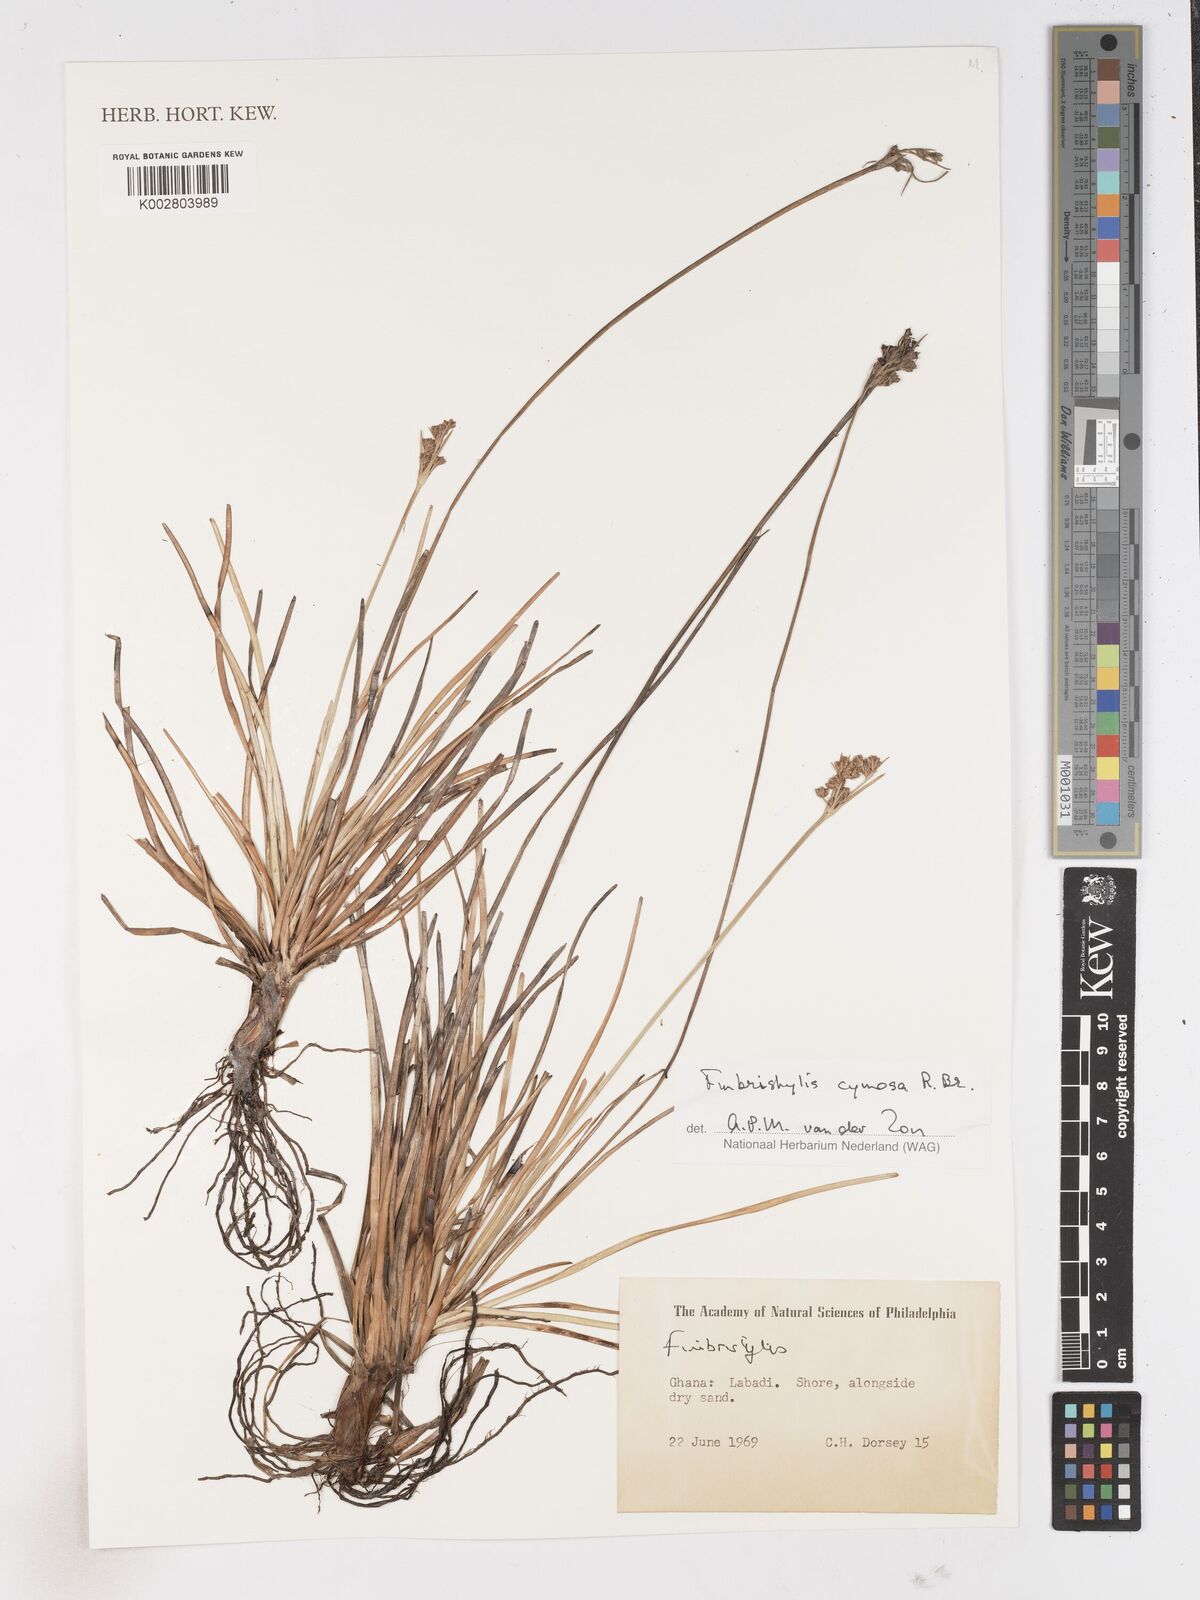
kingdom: Plantae
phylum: Tracheophyta
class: Liliopsida
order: Poales
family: Cyperaceae
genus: Fimbristylis
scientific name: Fimbristylis cymosa
